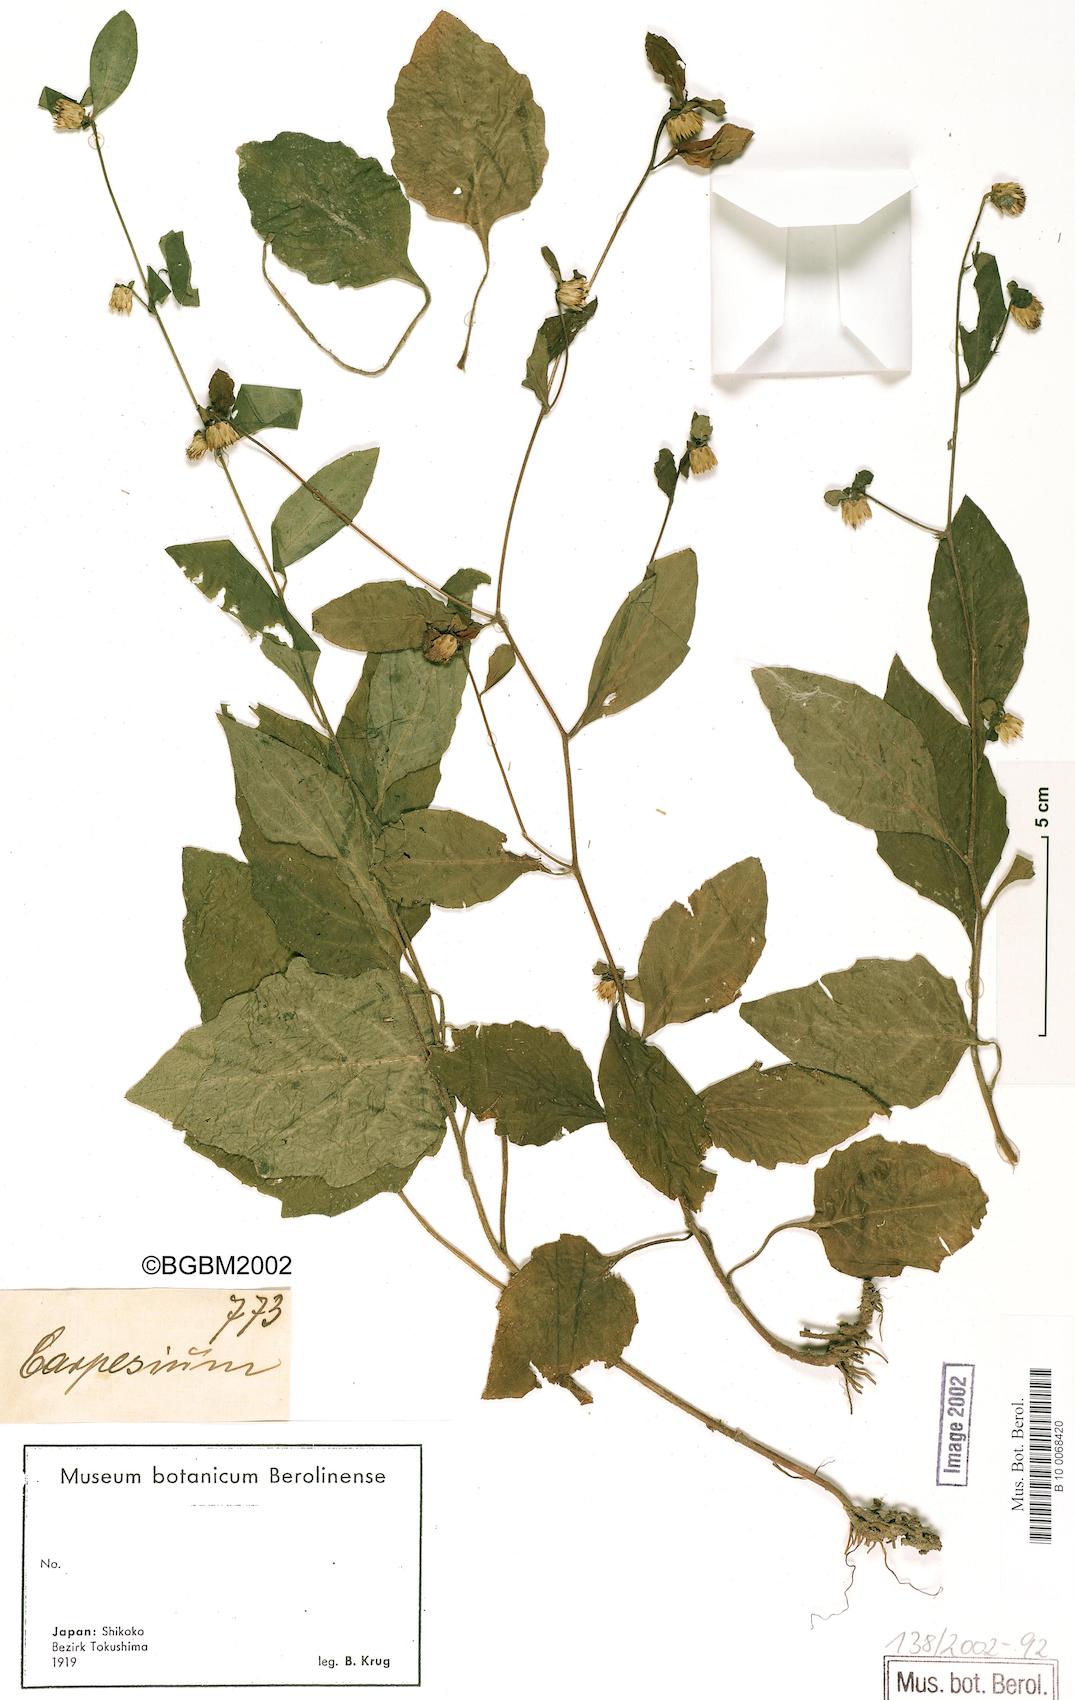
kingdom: Plantae
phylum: Tracheophyta
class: Magnoliopsida
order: Asterales
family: Asteraceae
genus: Carpesium
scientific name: Carpesium divaricatum
